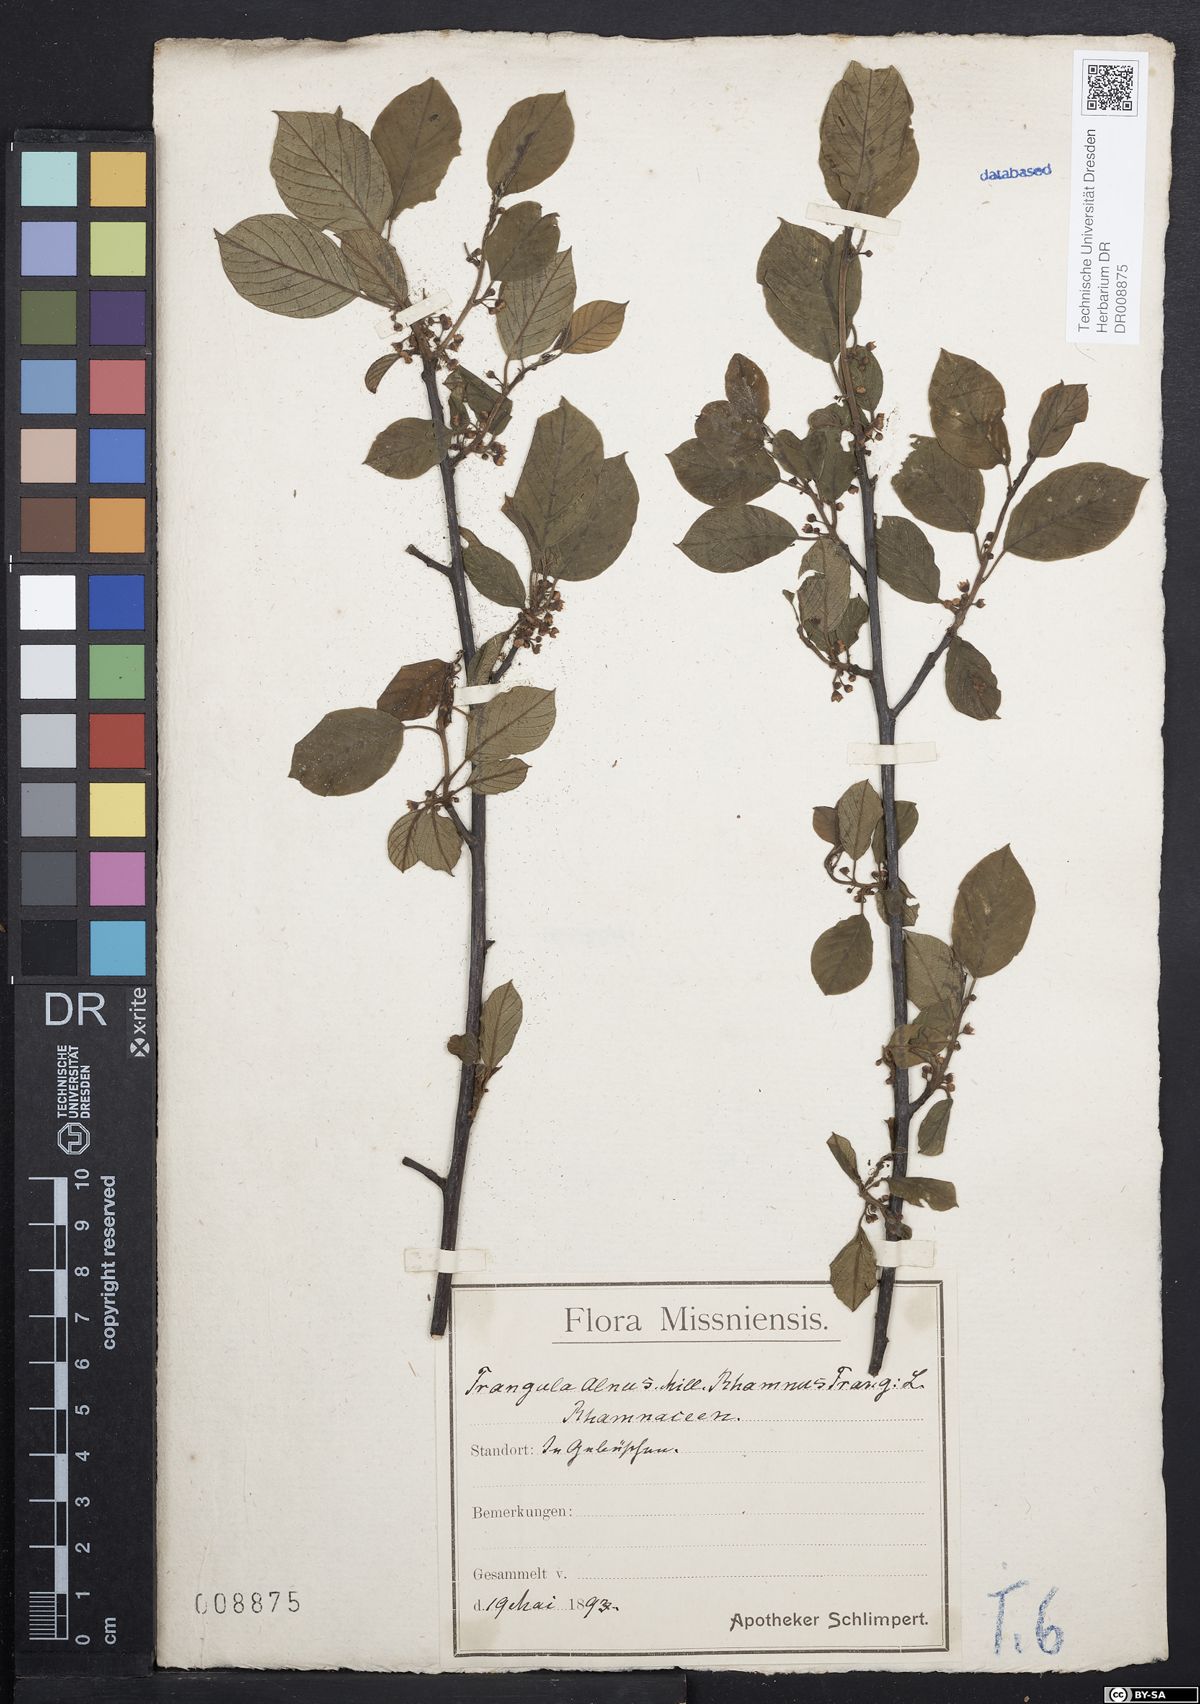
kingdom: Plantae
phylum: Tracheophyta
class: Magnoliopsida
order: Rosales
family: Rhamnaceae
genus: Frangula
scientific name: Frangula alnus
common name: Alder buckthorn
